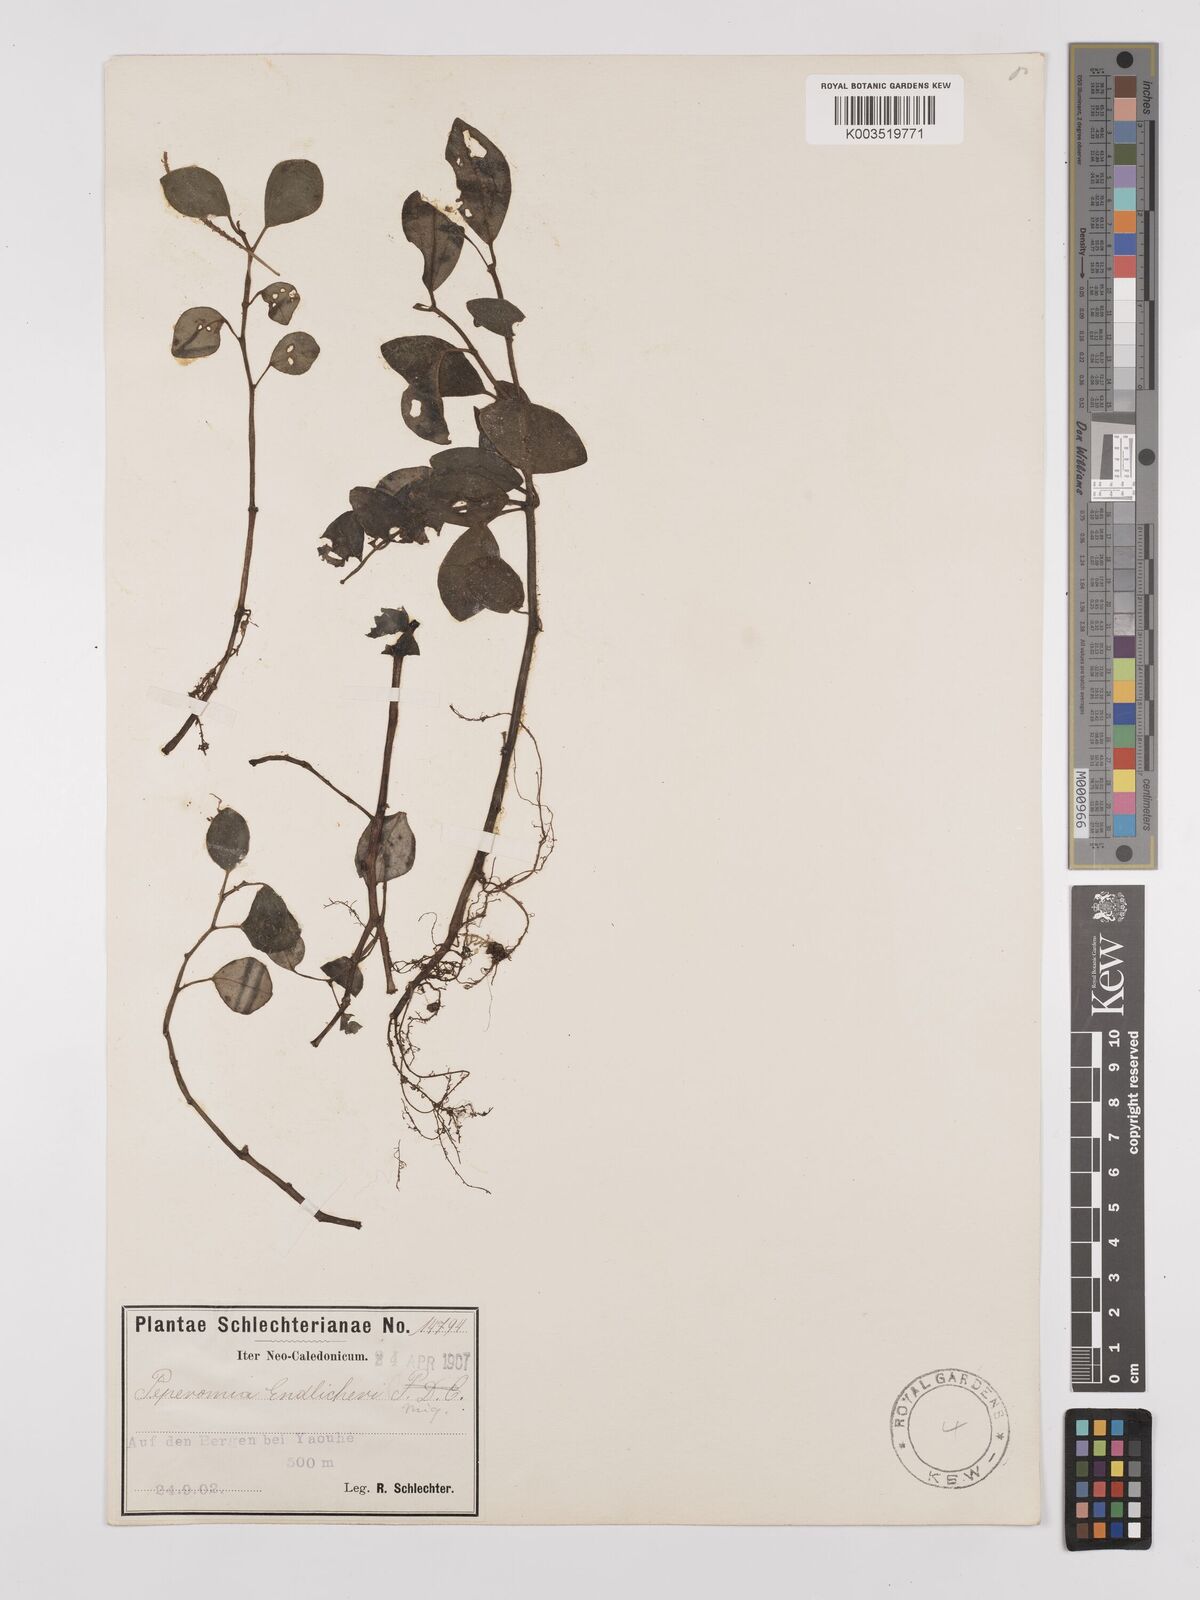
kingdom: Plantae
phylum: Tracheophyta
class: Magnoliopsida
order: Piperales
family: Piperaceae
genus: Peperomia
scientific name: Peperomia urvilleana
